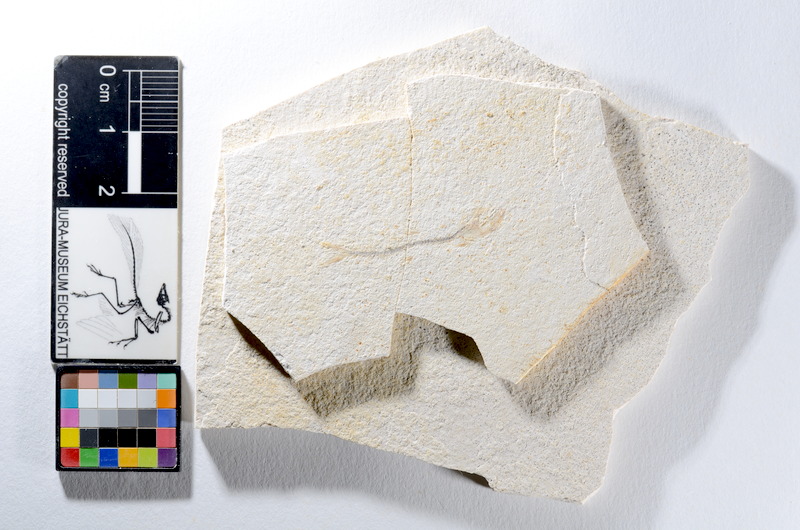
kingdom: Animalia
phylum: Chordata
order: Salmoniformes
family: Orthogonikleithridae
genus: Orthogonikleithrus
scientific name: Orthogonikleithrus hoelli
